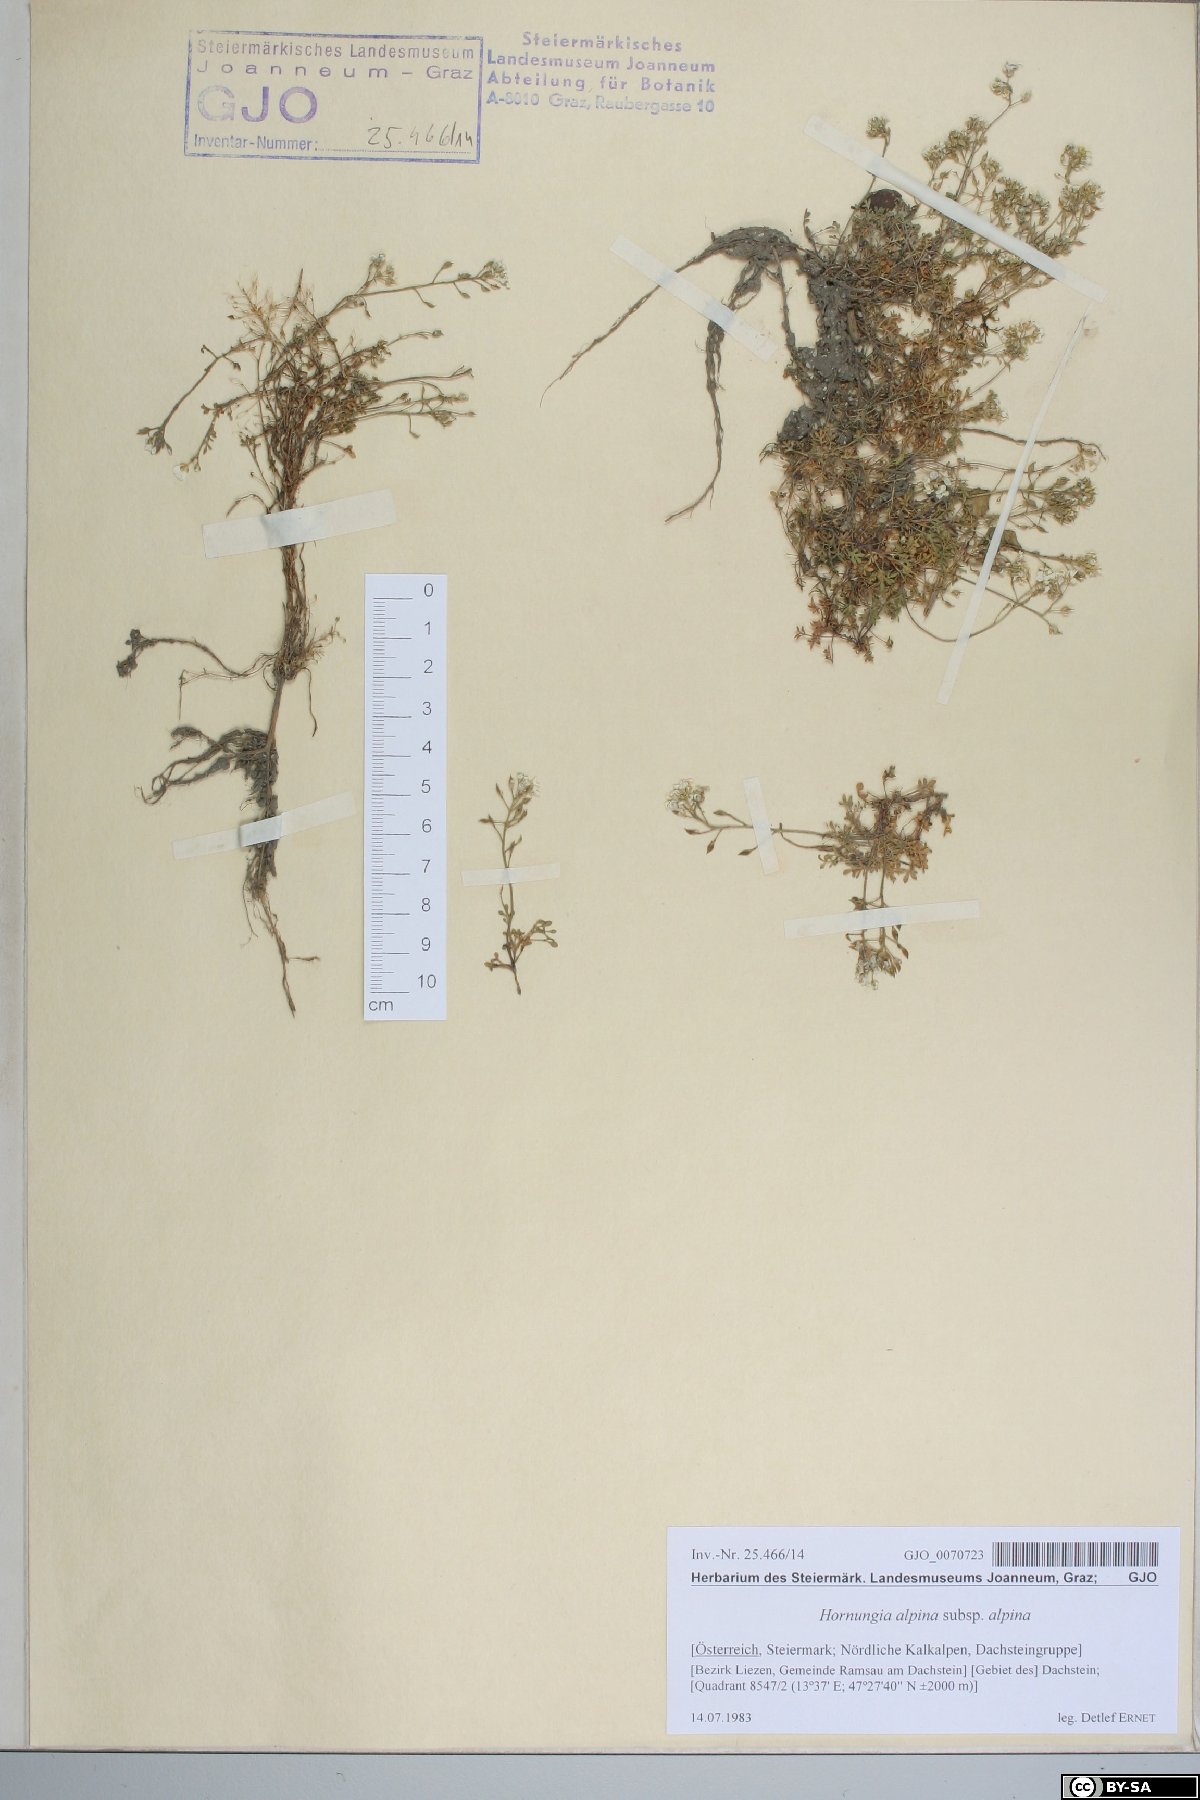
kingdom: Plantae
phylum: Tracheophyta
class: Magnoliopsida
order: Brassicales
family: Brassicaceae
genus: Hornungia
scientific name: Hornungia alpina
